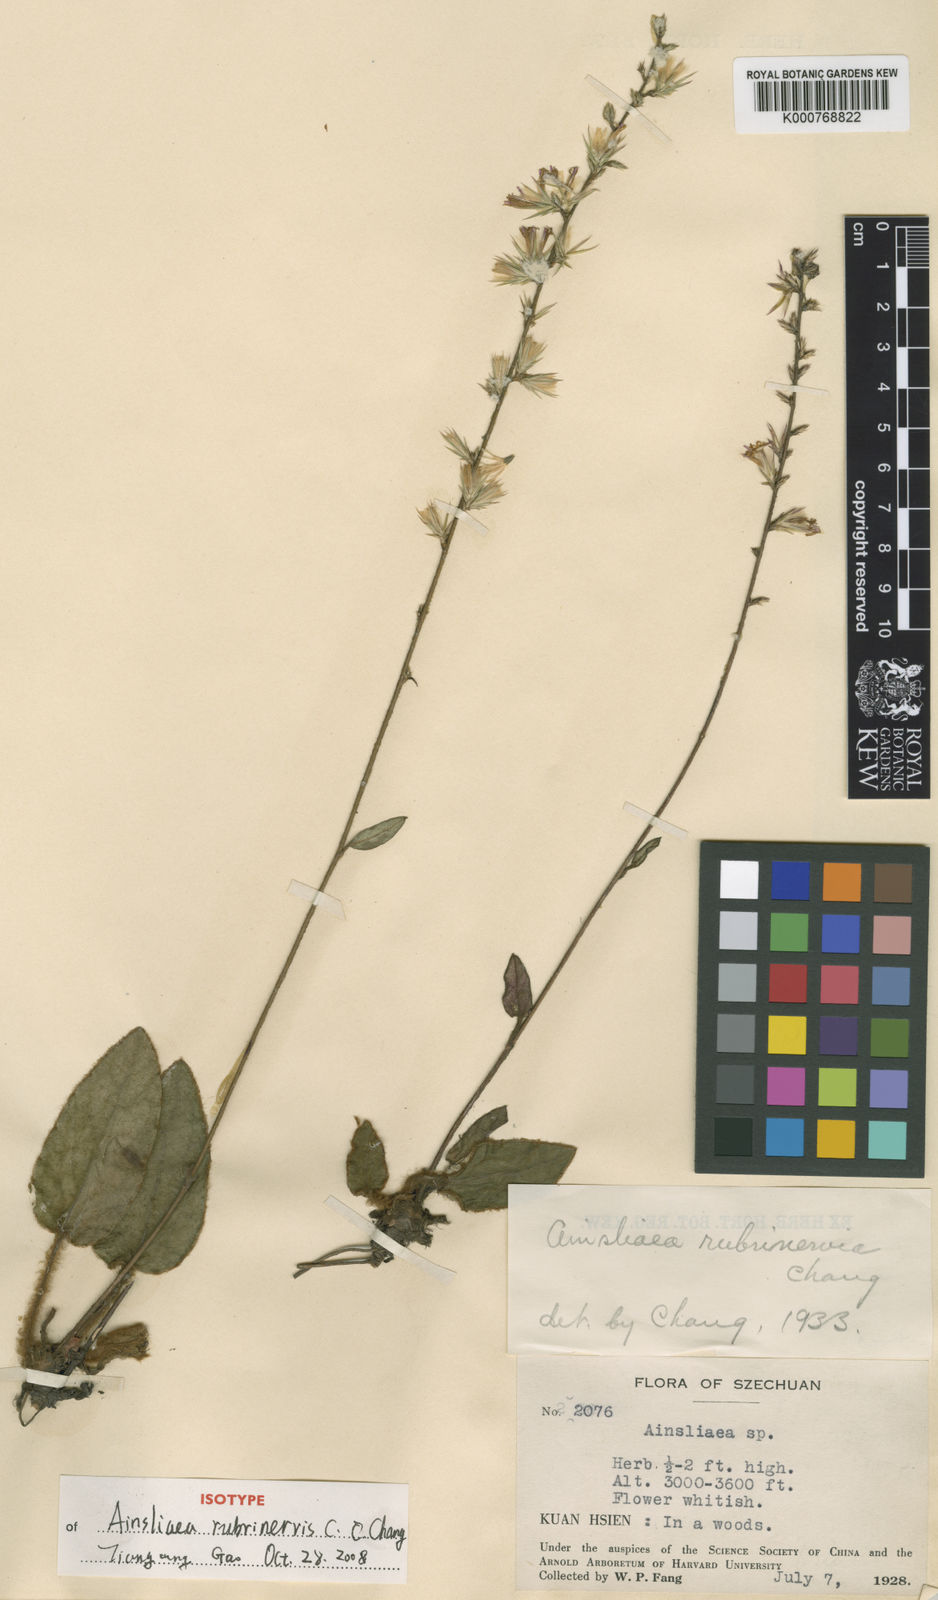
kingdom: Plantae
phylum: Tracheophyta
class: Magnoliopsida
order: Asterales
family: Asteraceae
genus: Ainsliaea
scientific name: Ainsliaea rubrinervis
